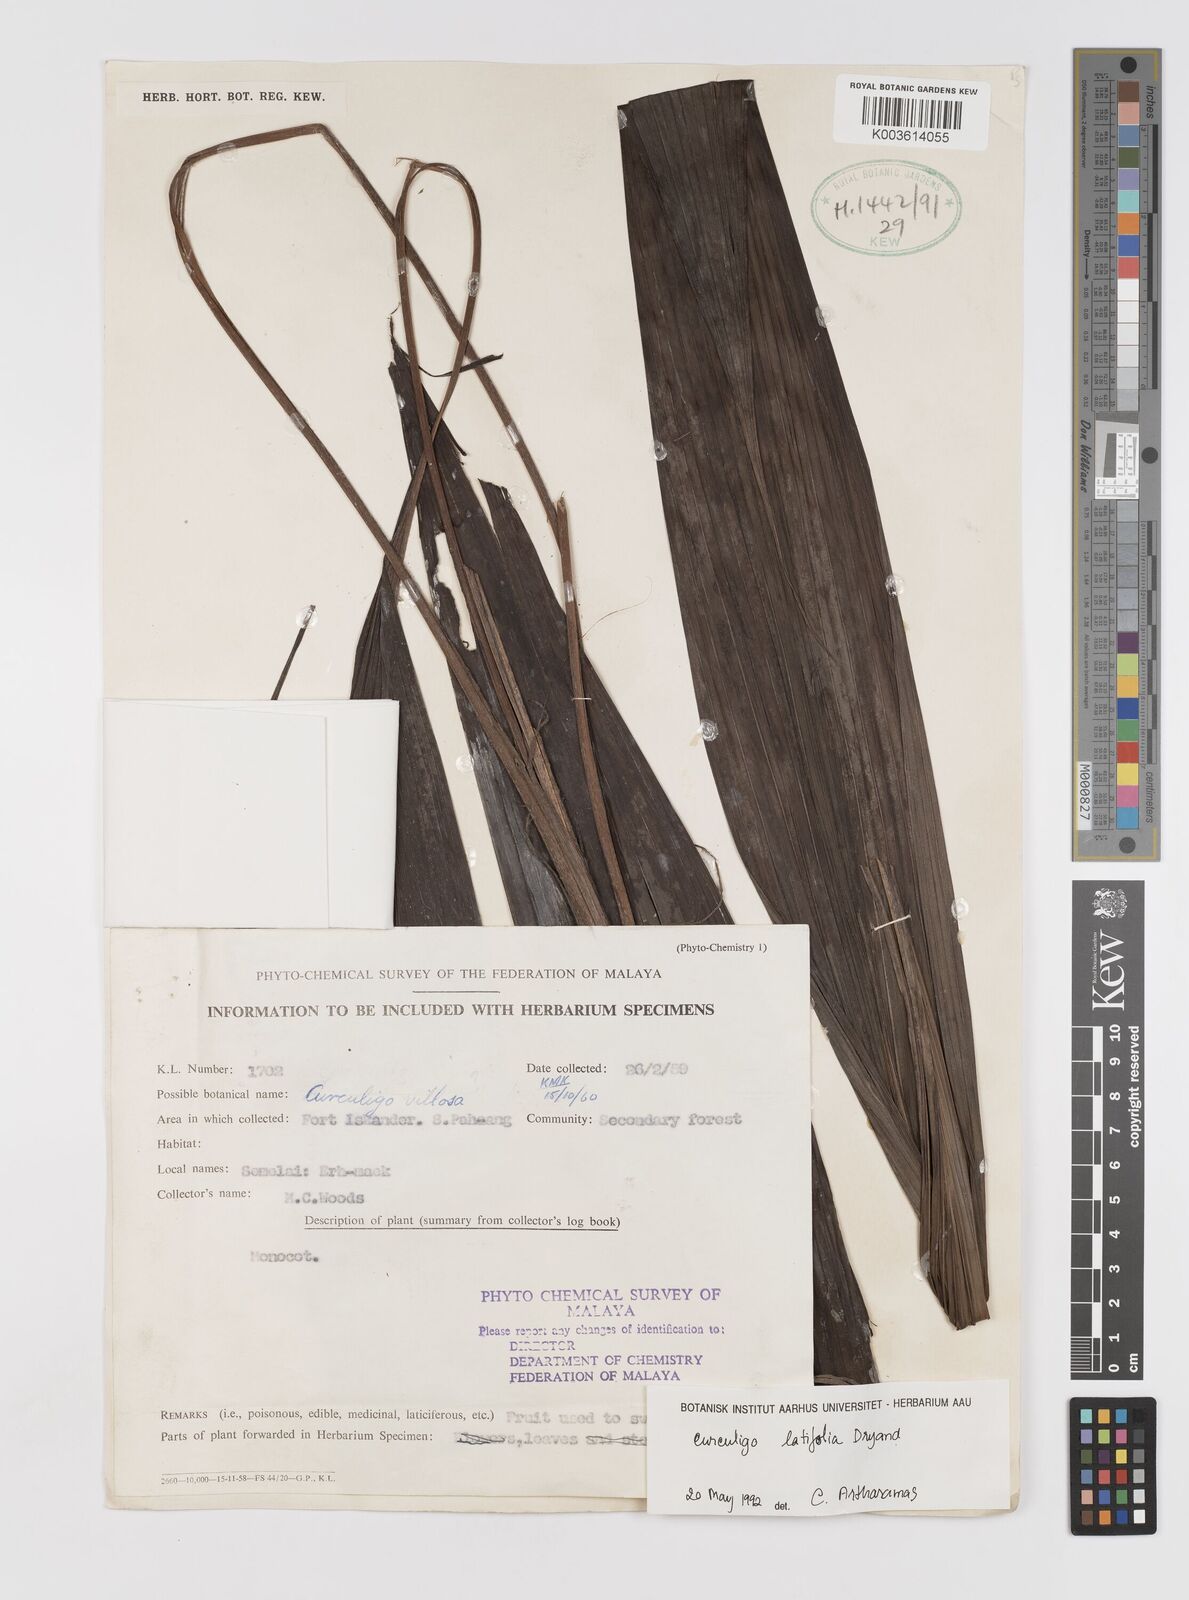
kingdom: Plantae
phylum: Tracheophyta
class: Liliopsida
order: Asparagales
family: Hypoxidaceae
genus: Curculigo
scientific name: Curculigo latifolia
